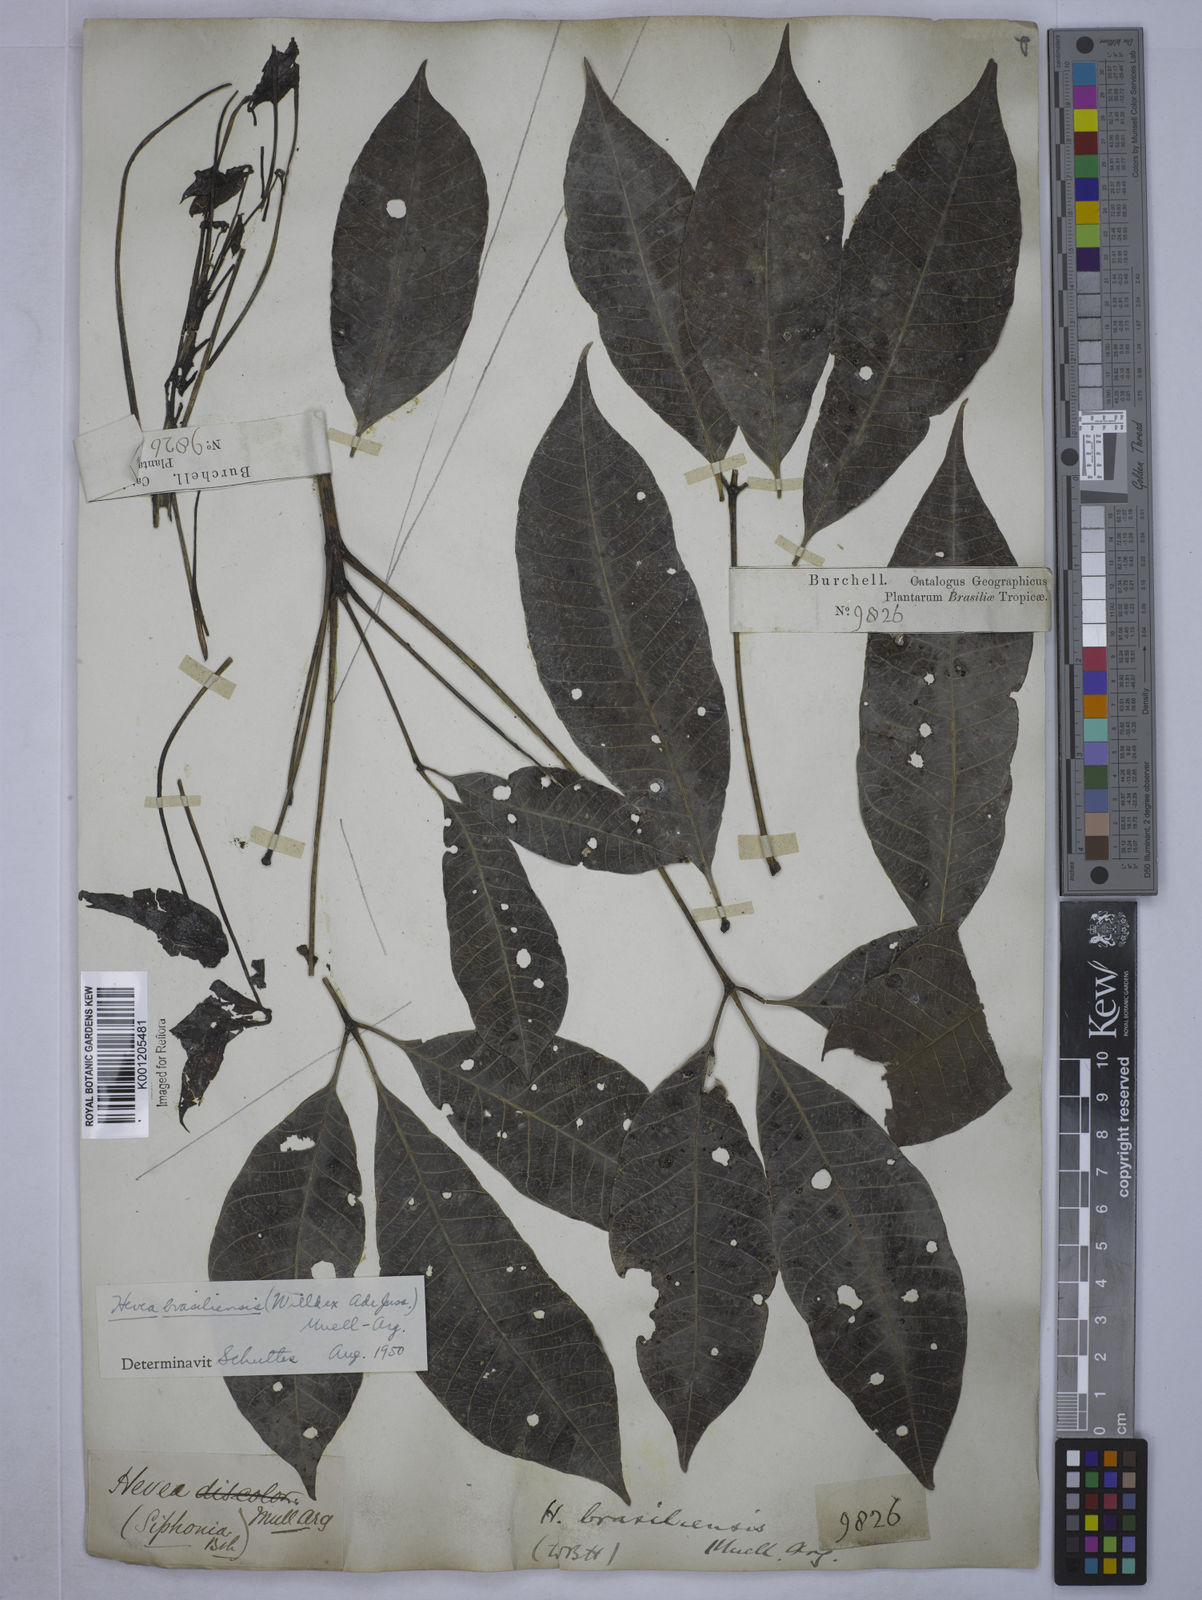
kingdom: Plantae
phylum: Tracheophyta
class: Magnoliopsida
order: Malpighiales
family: Euphorbiaceae
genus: Hevea
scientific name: Hevea
